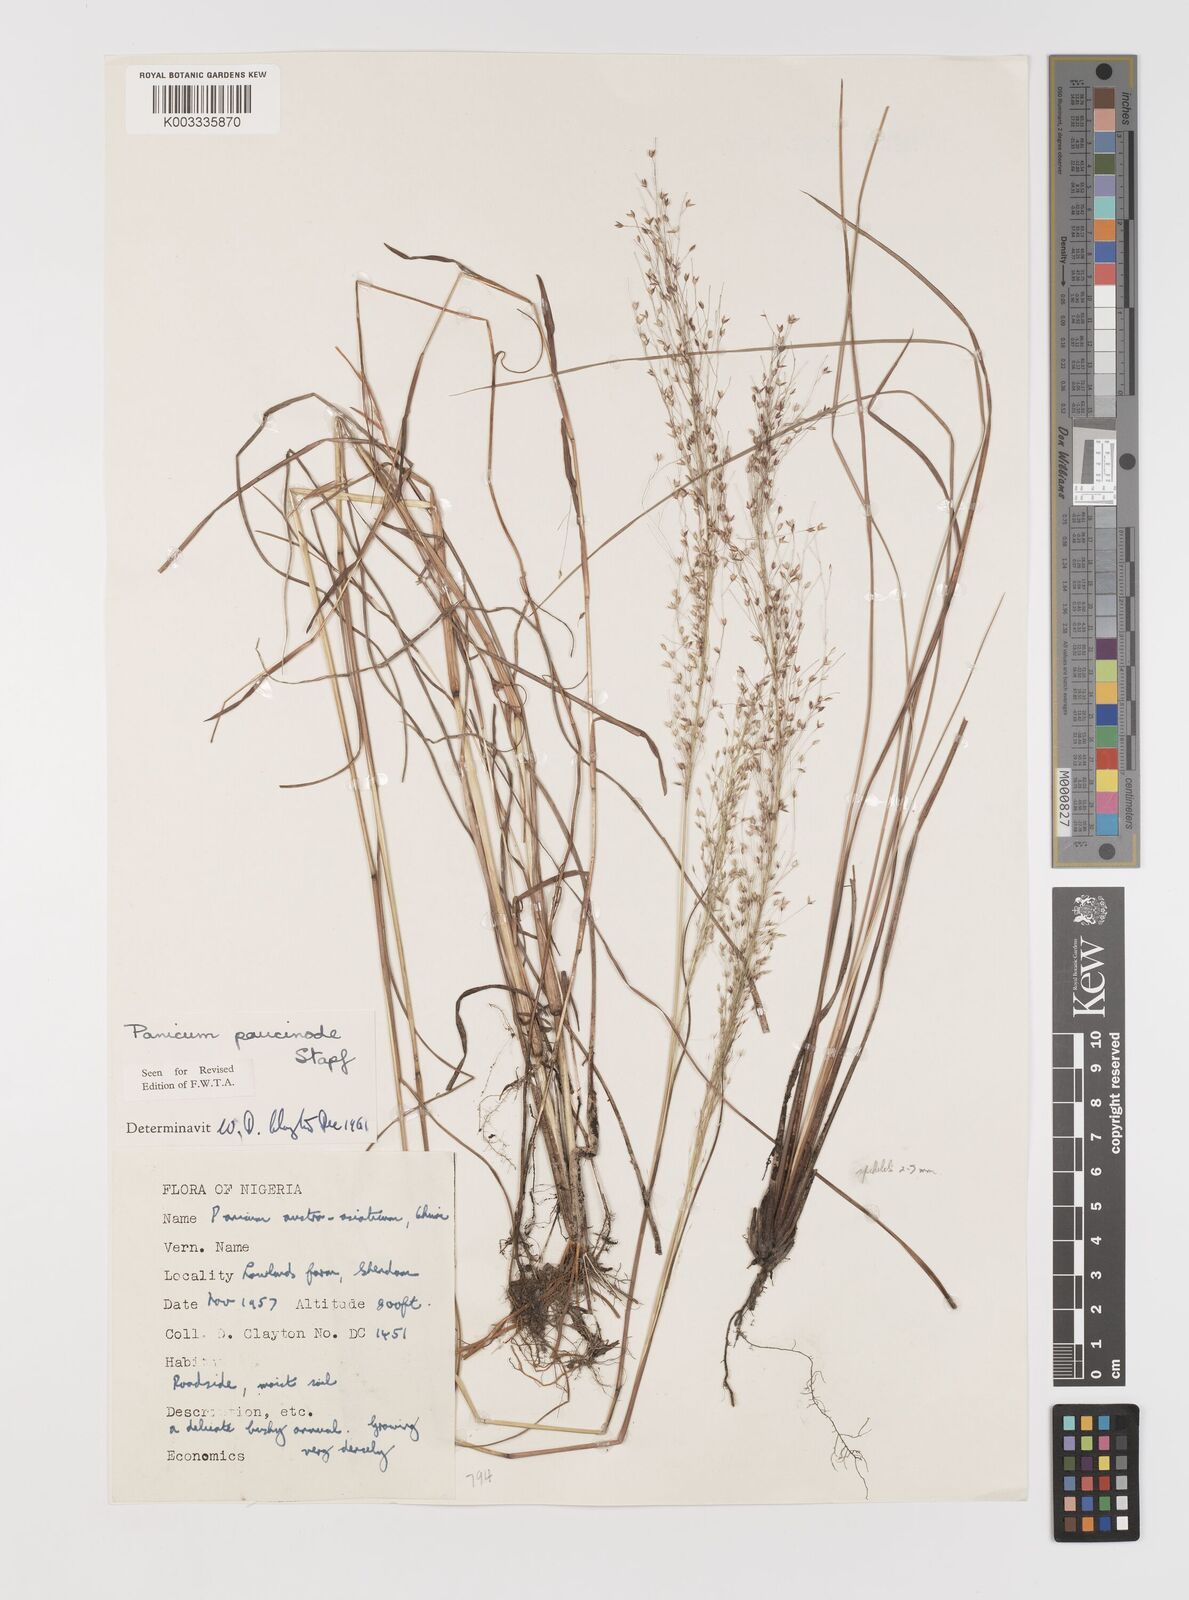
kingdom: Plantae
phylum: Tracheophyta
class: Liliopsida
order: Poales
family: Poaceae
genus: Panicum
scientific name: Panicum paucinode
